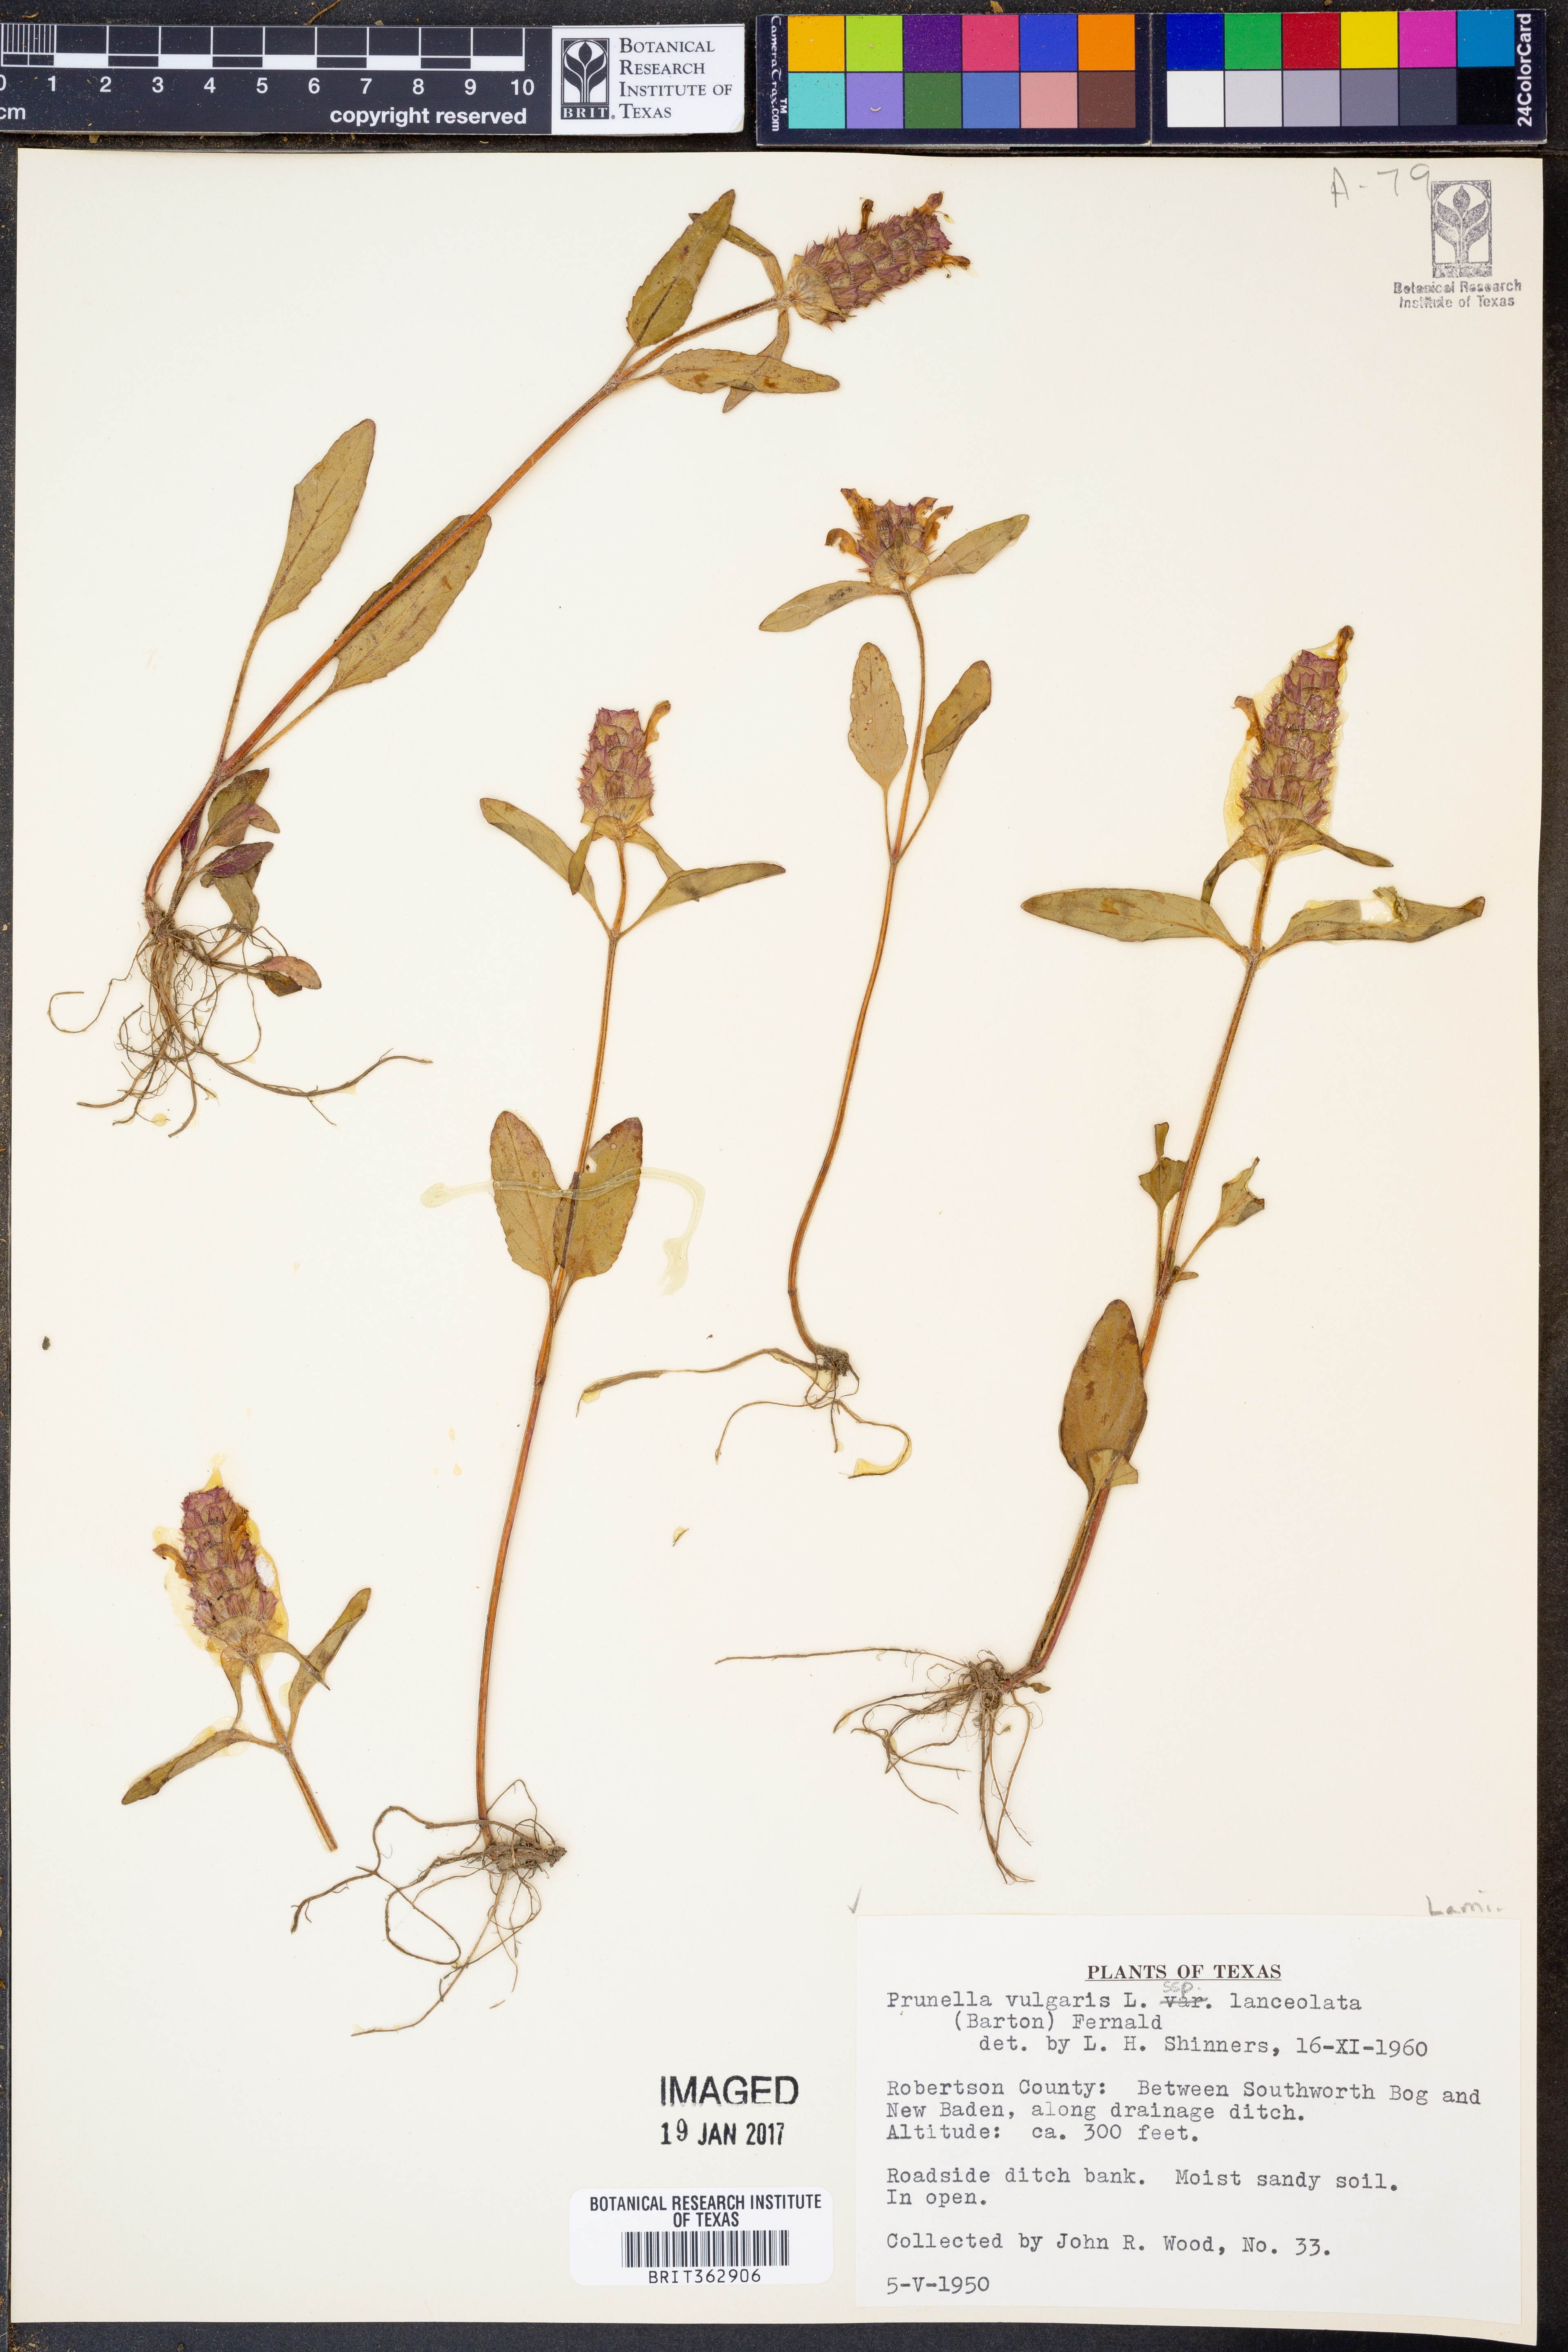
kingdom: Plantae
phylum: Tracheophyta
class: Magnoliopsida
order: Lamiales
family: Lamiaceae
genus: Prunella
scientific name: Prunella vulgaris
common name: Heal-all
